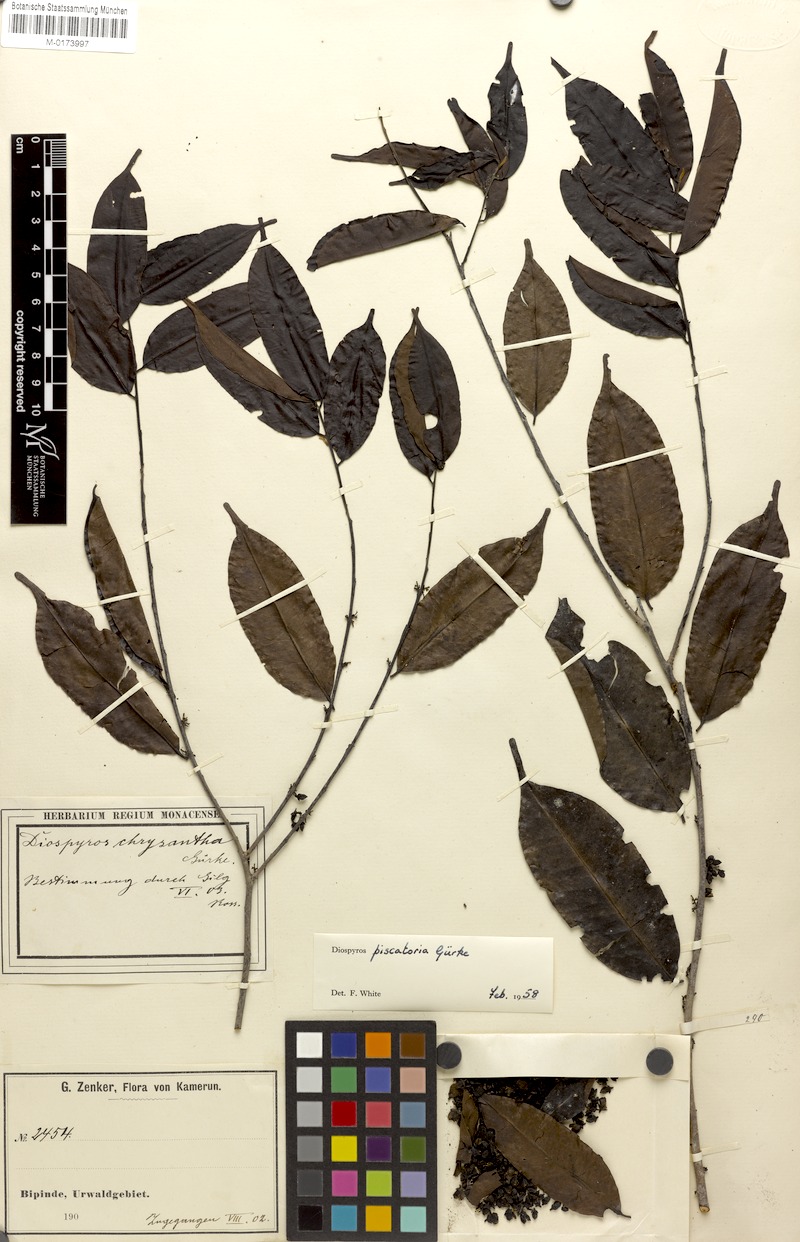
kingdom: Plantae
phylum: Tracheophyta
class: Magnoliopsida
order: Ericales
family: Ebenaceae
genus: Diospyros
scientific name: Diospyros piscatoria
